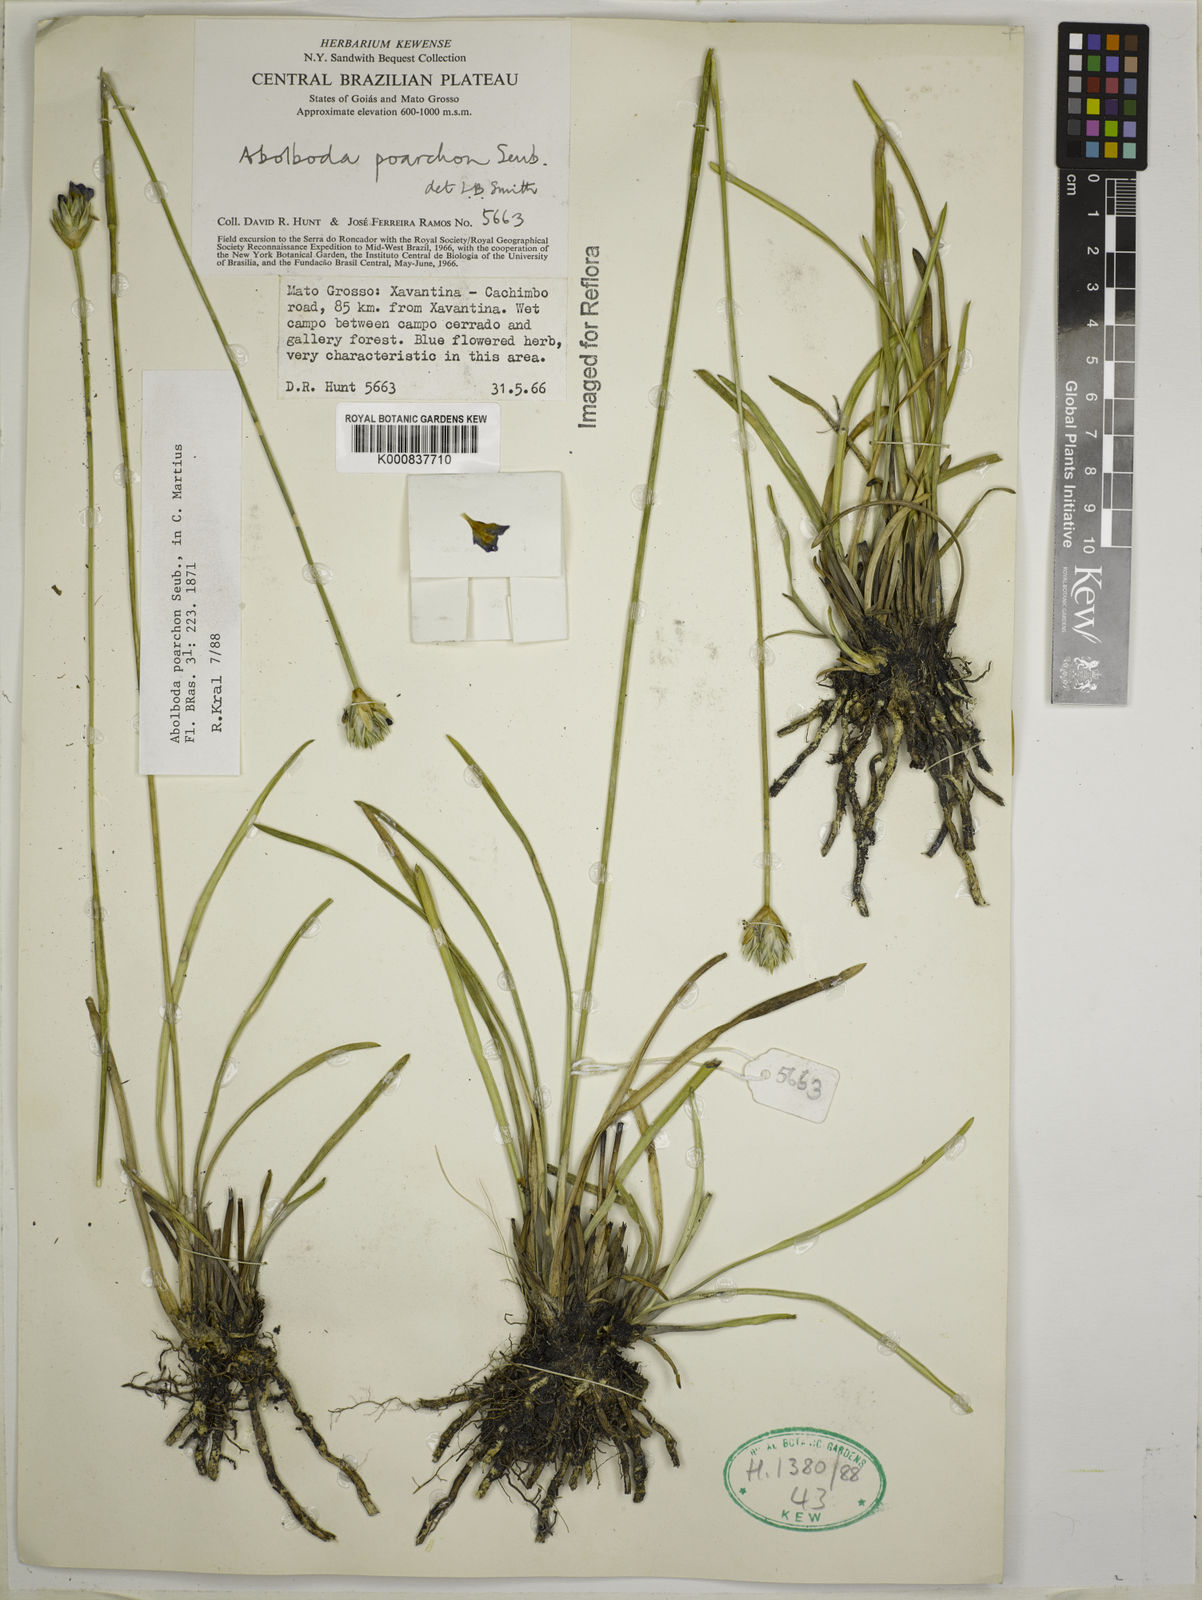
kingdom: Plantae
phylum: Tracheophyta
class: Liliopsida
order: Poales
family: Xyridaceae
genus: Abolboda
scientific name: Abolboda poarchon
